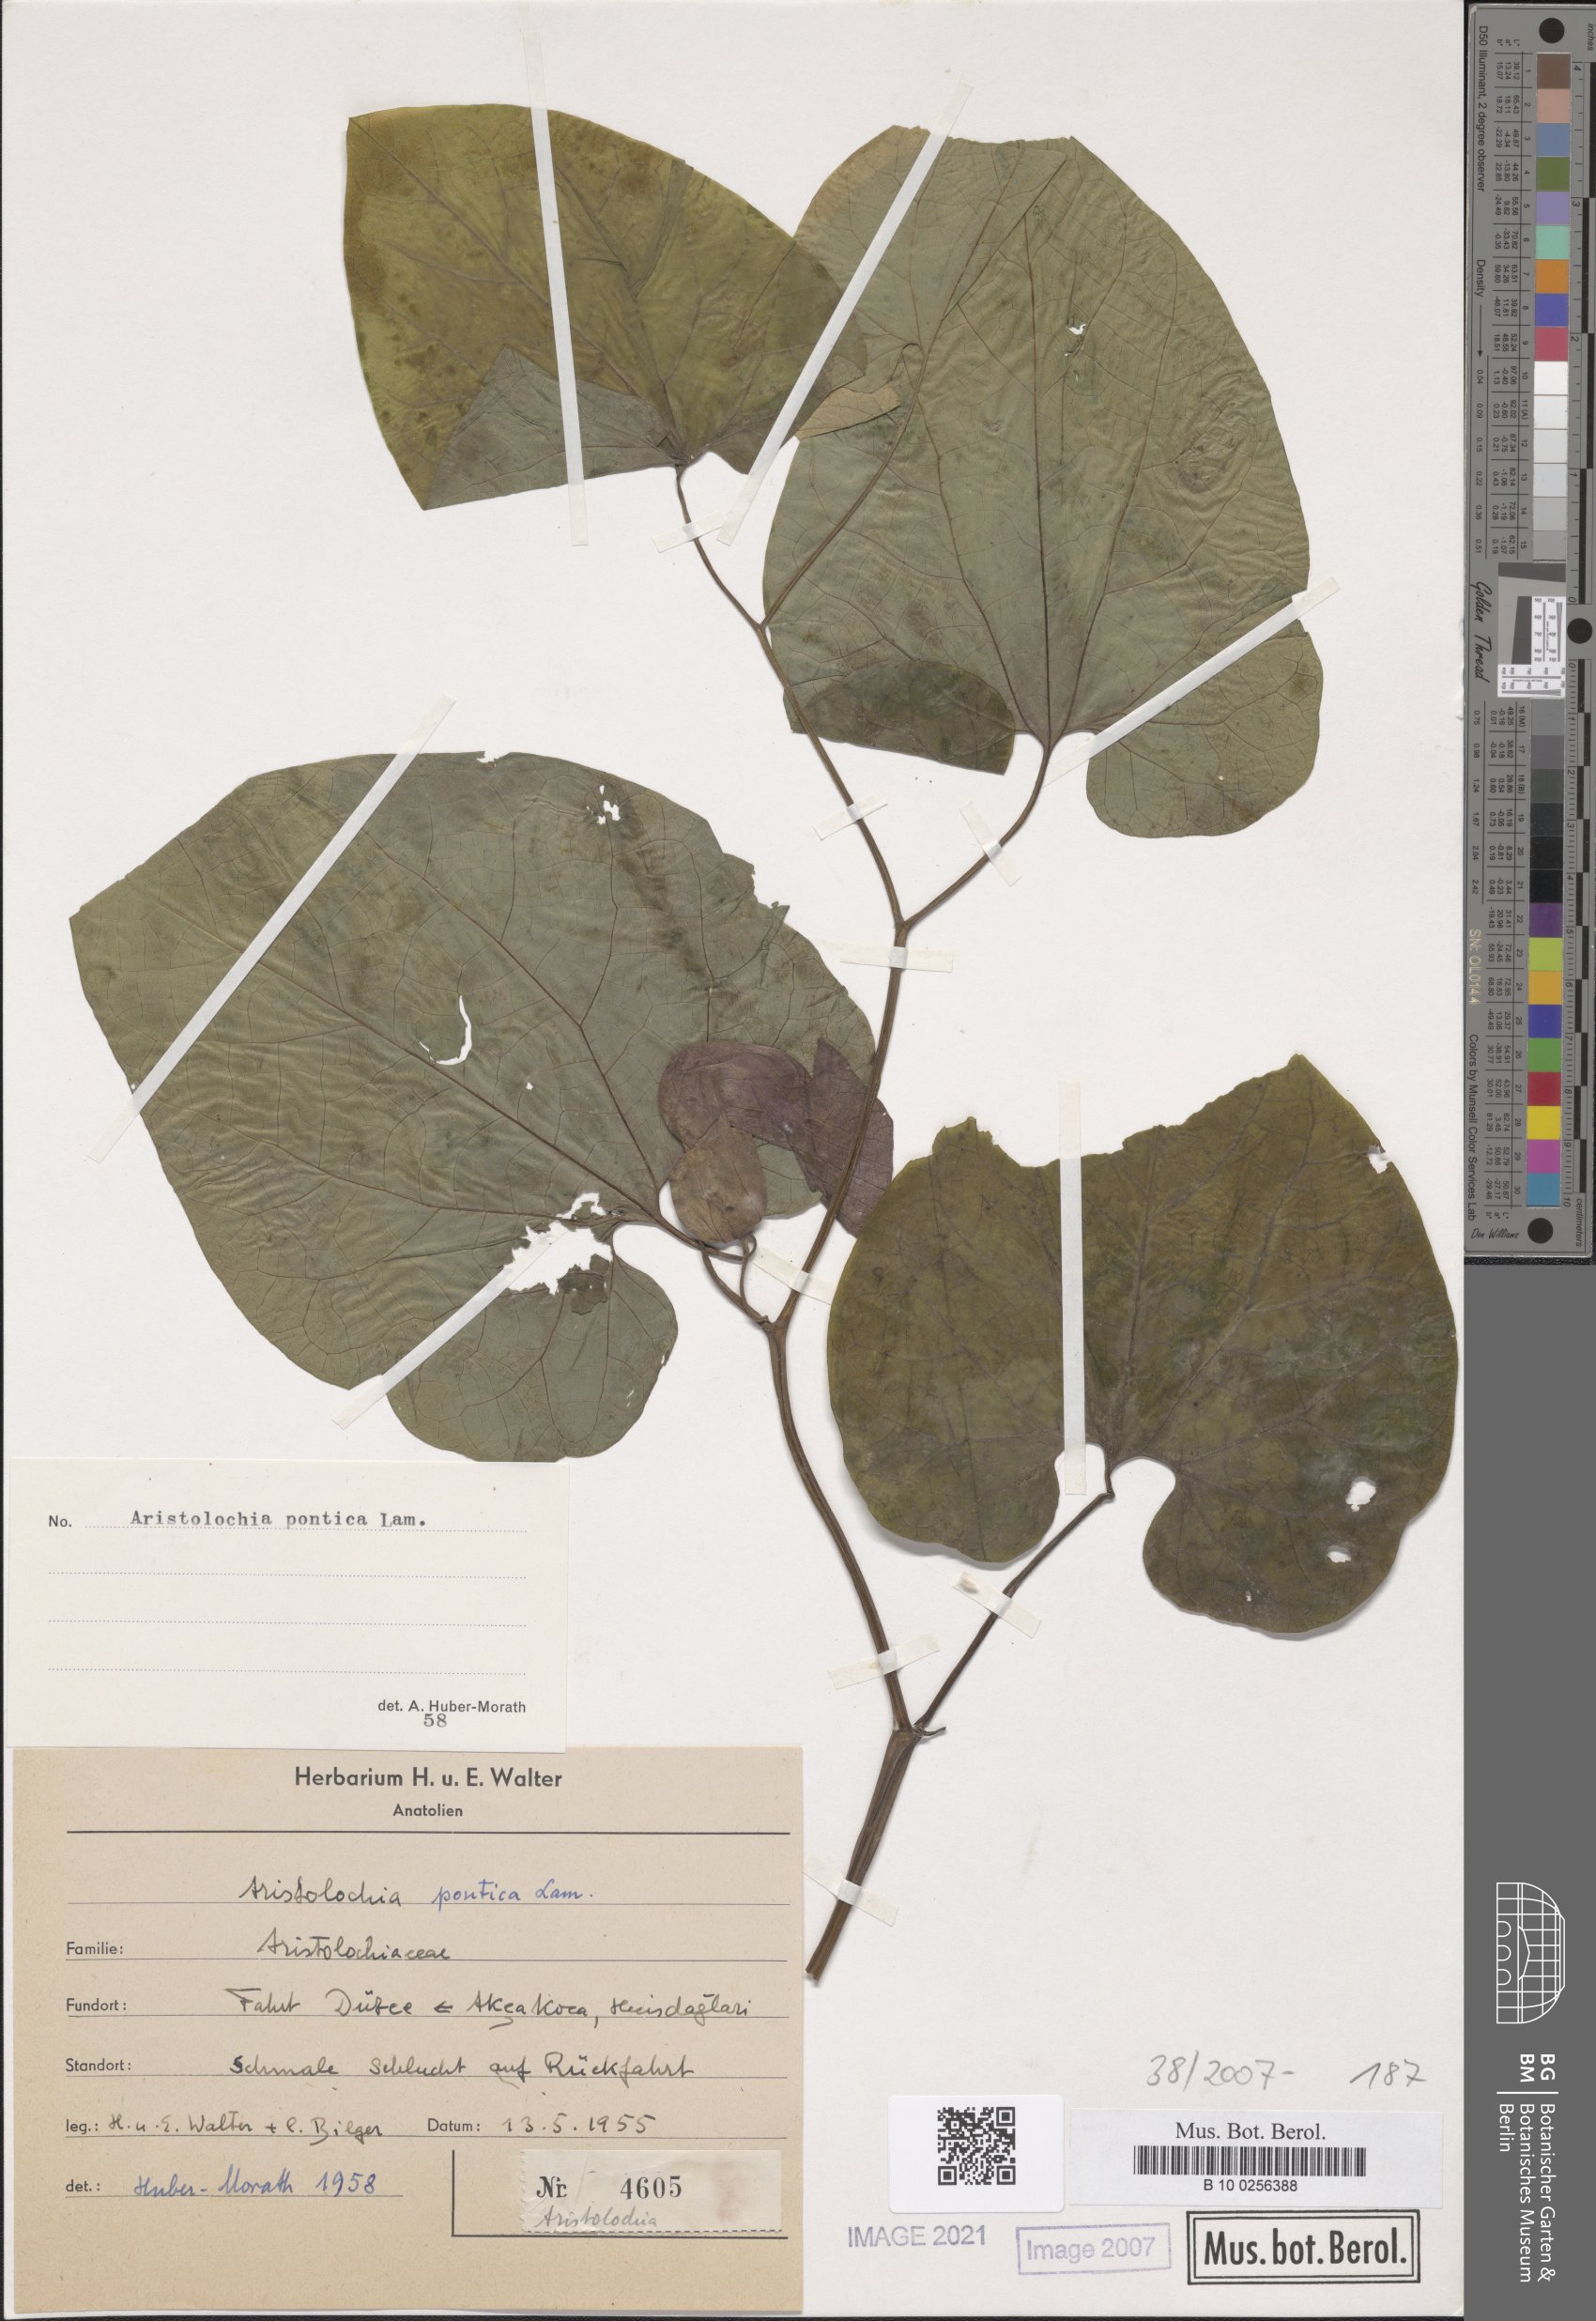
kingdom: Plantae
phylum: Tracheophyta
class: Magnoliopsida
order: Piperales
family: Aristolochiaceae
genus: Aristolochia
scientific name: Aristolochia pontica
